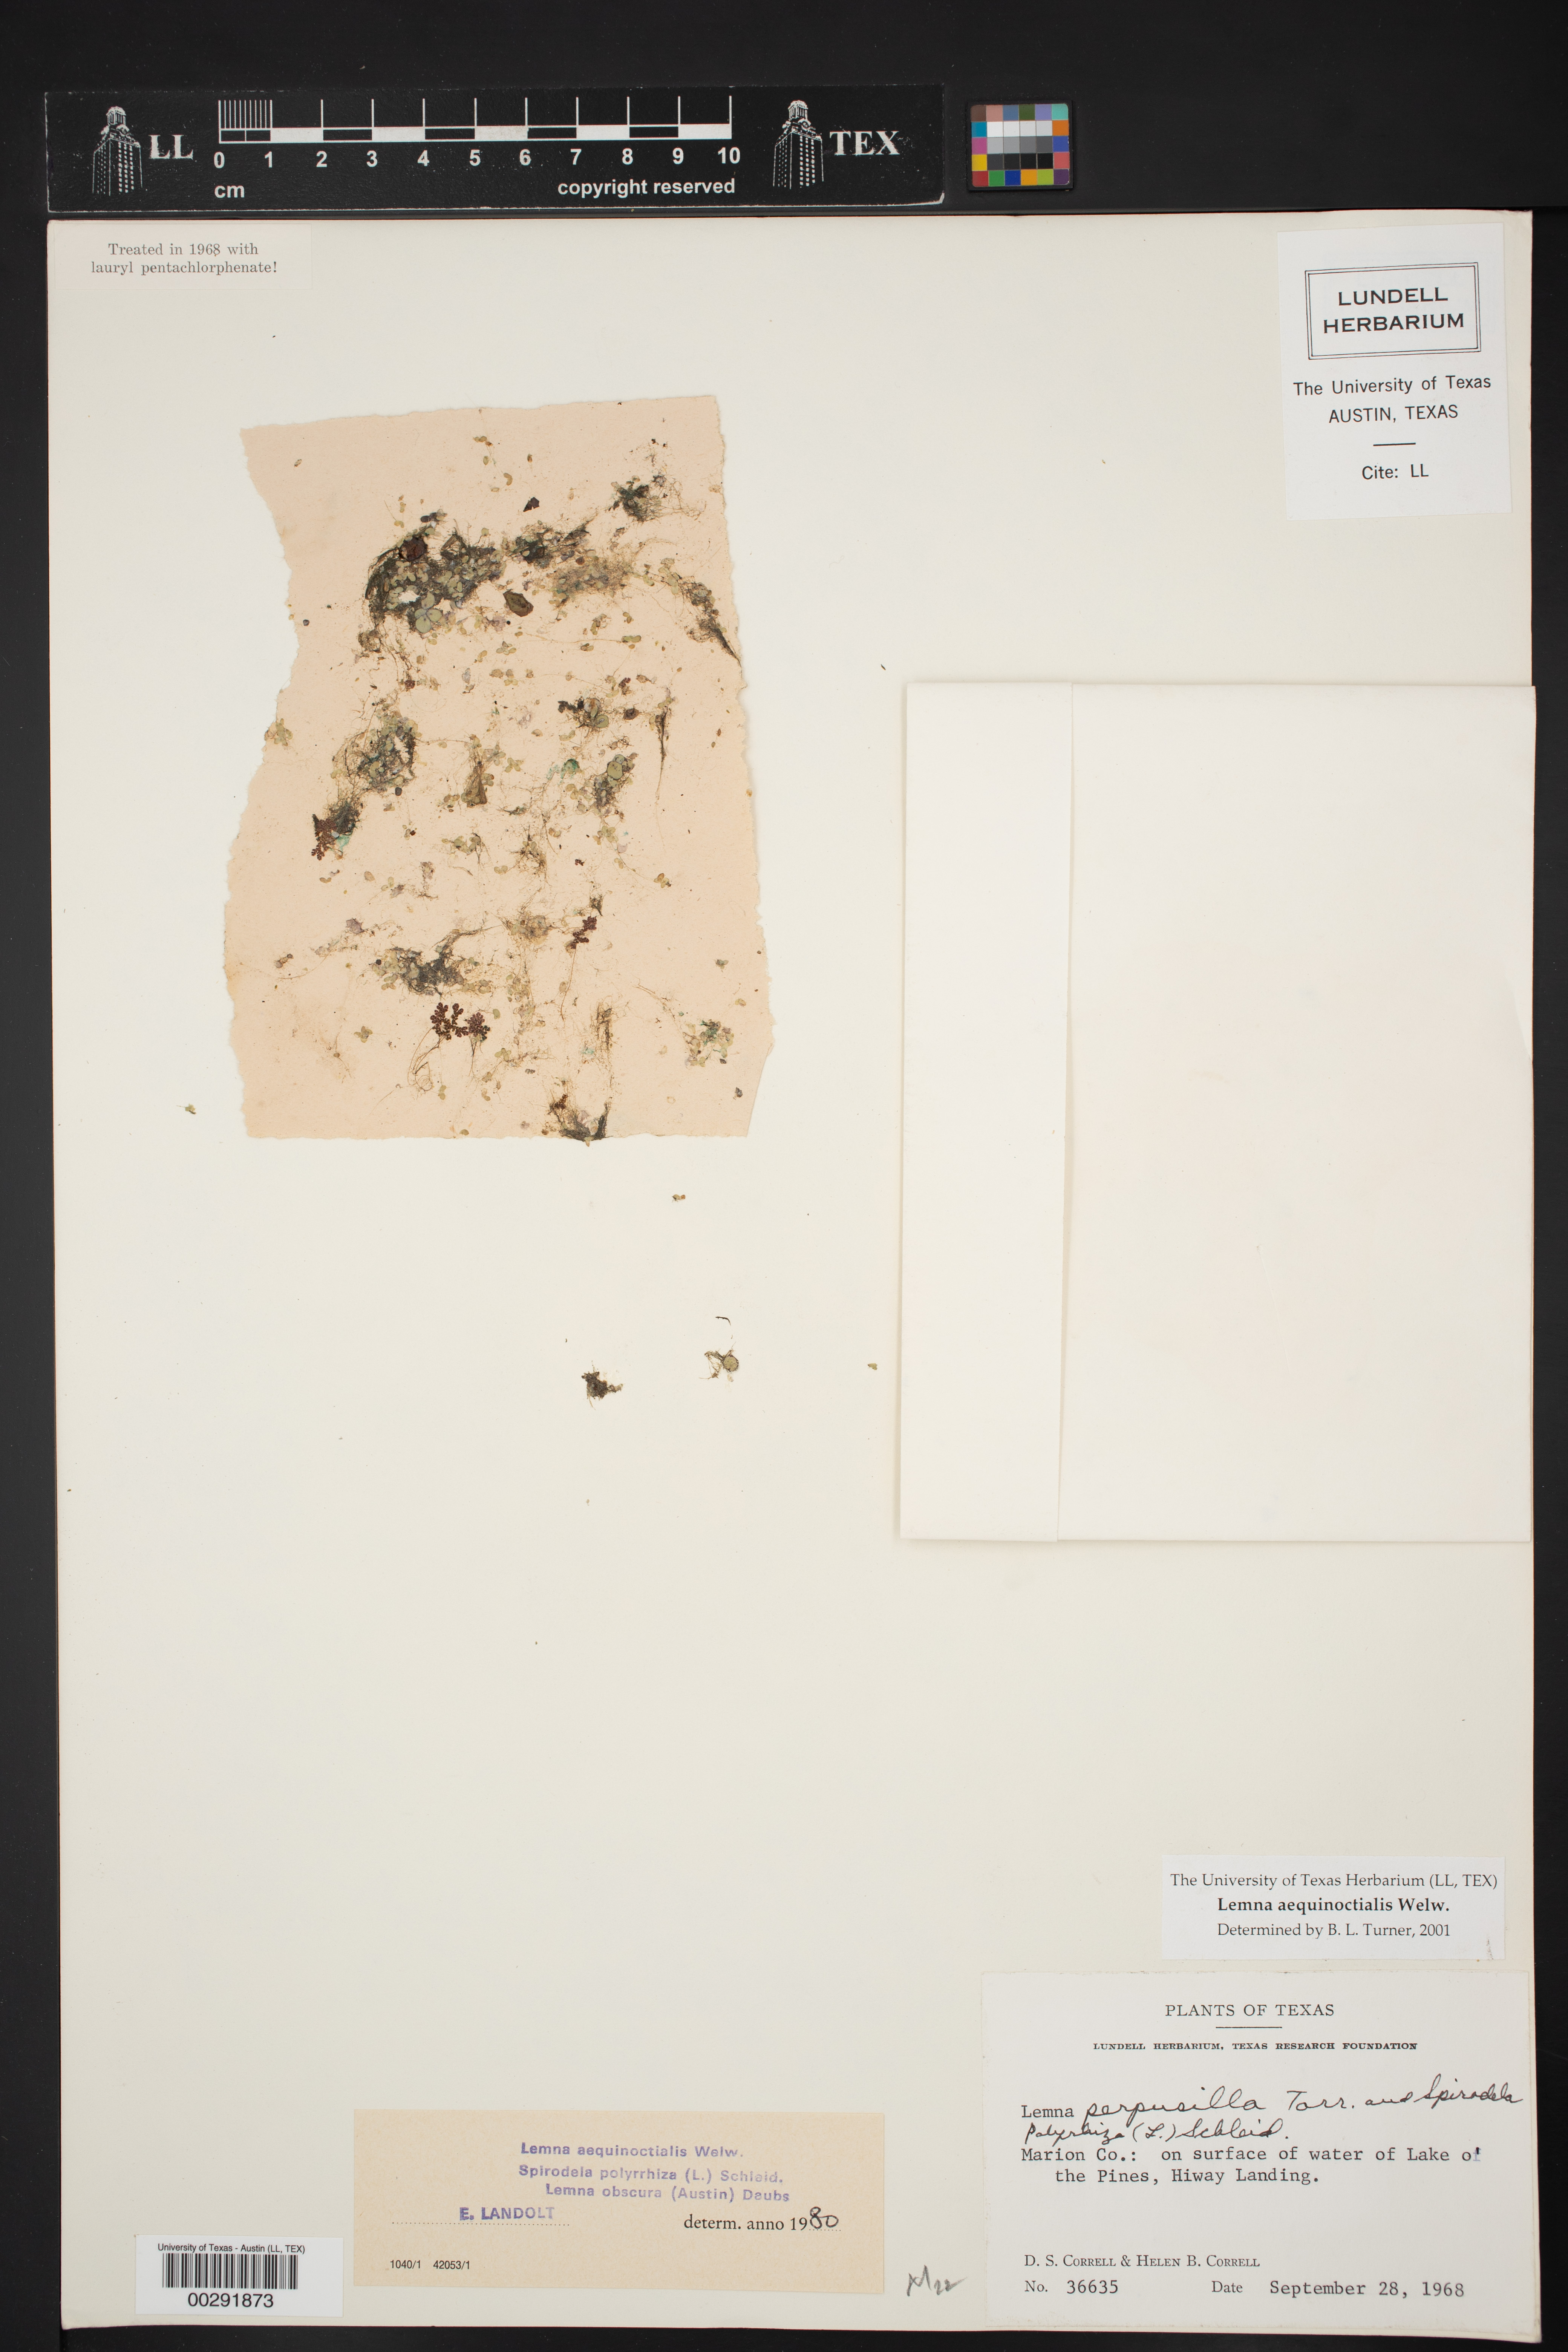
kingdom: Plantae
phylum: Tracheophyta
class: Liliopsida
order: Alismatales
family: Araceae
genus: Lemna
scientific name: Lemna aequinoctialis
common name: Duckweed
